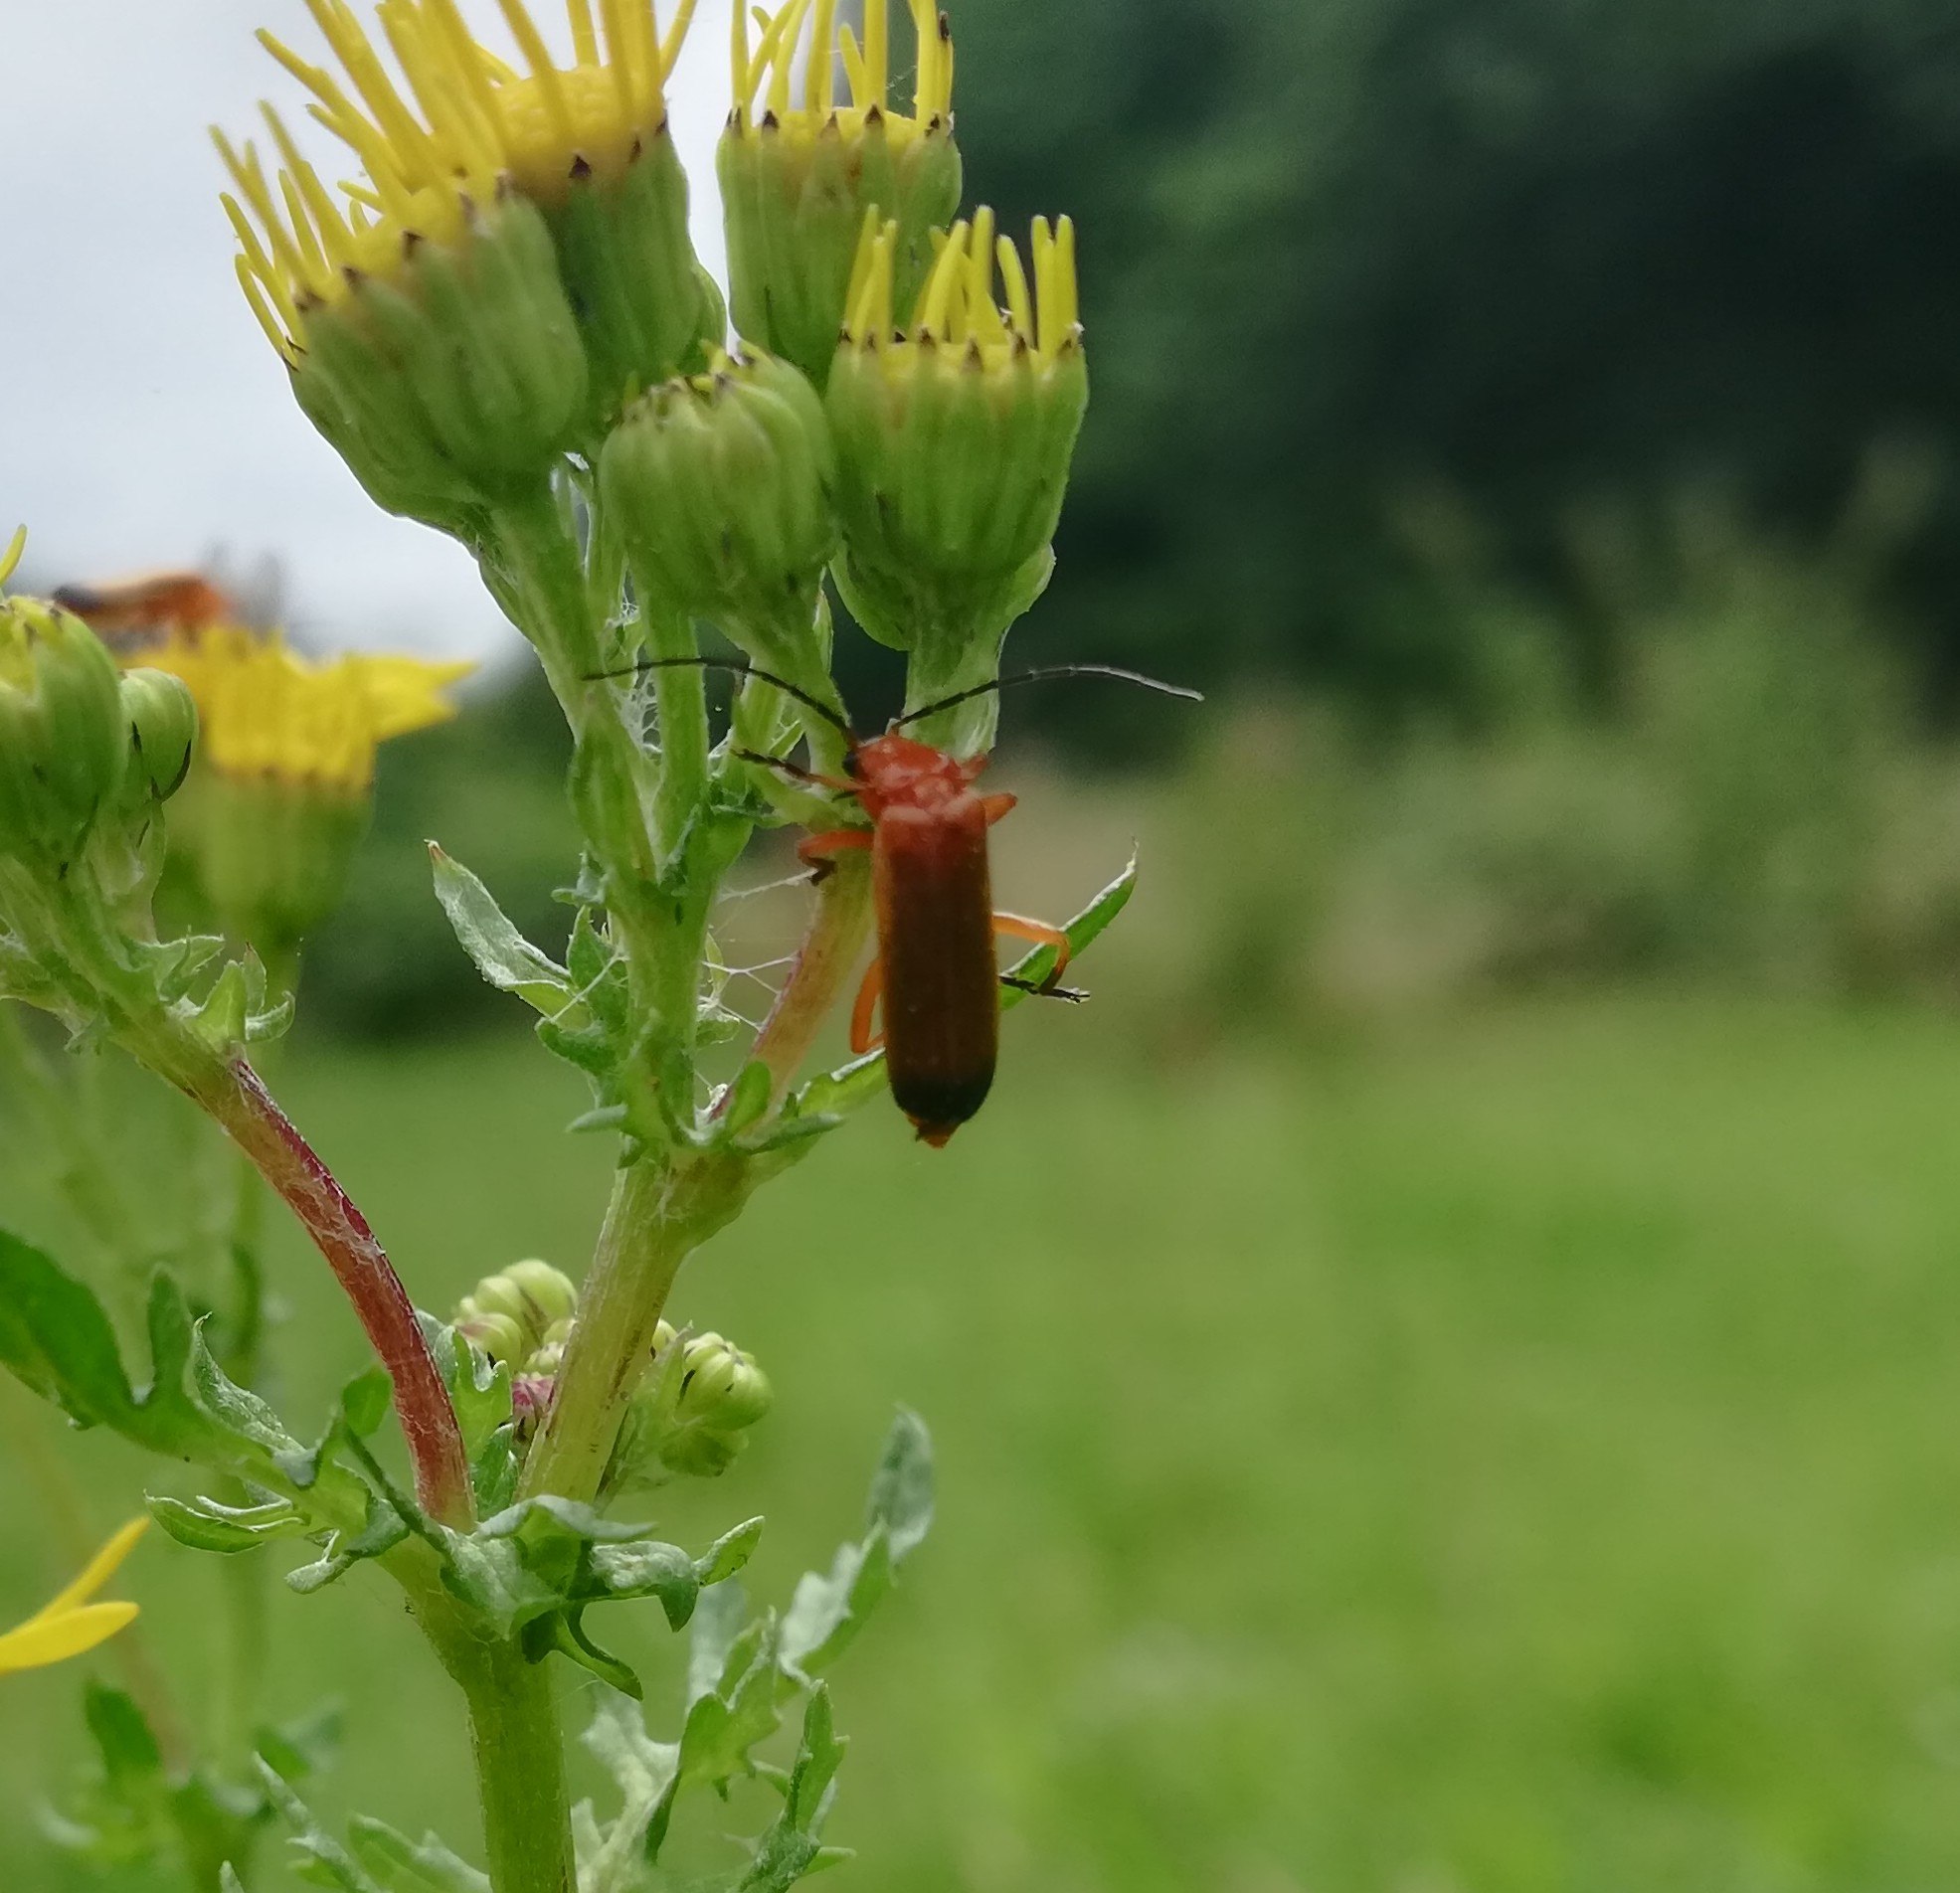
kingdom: Animalia
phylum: Arthropoda
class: Insecta
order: Coleoptera
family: Cantharidae
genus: Rhagonycha
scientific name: Rhagonycha fulva
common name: Præstebille
